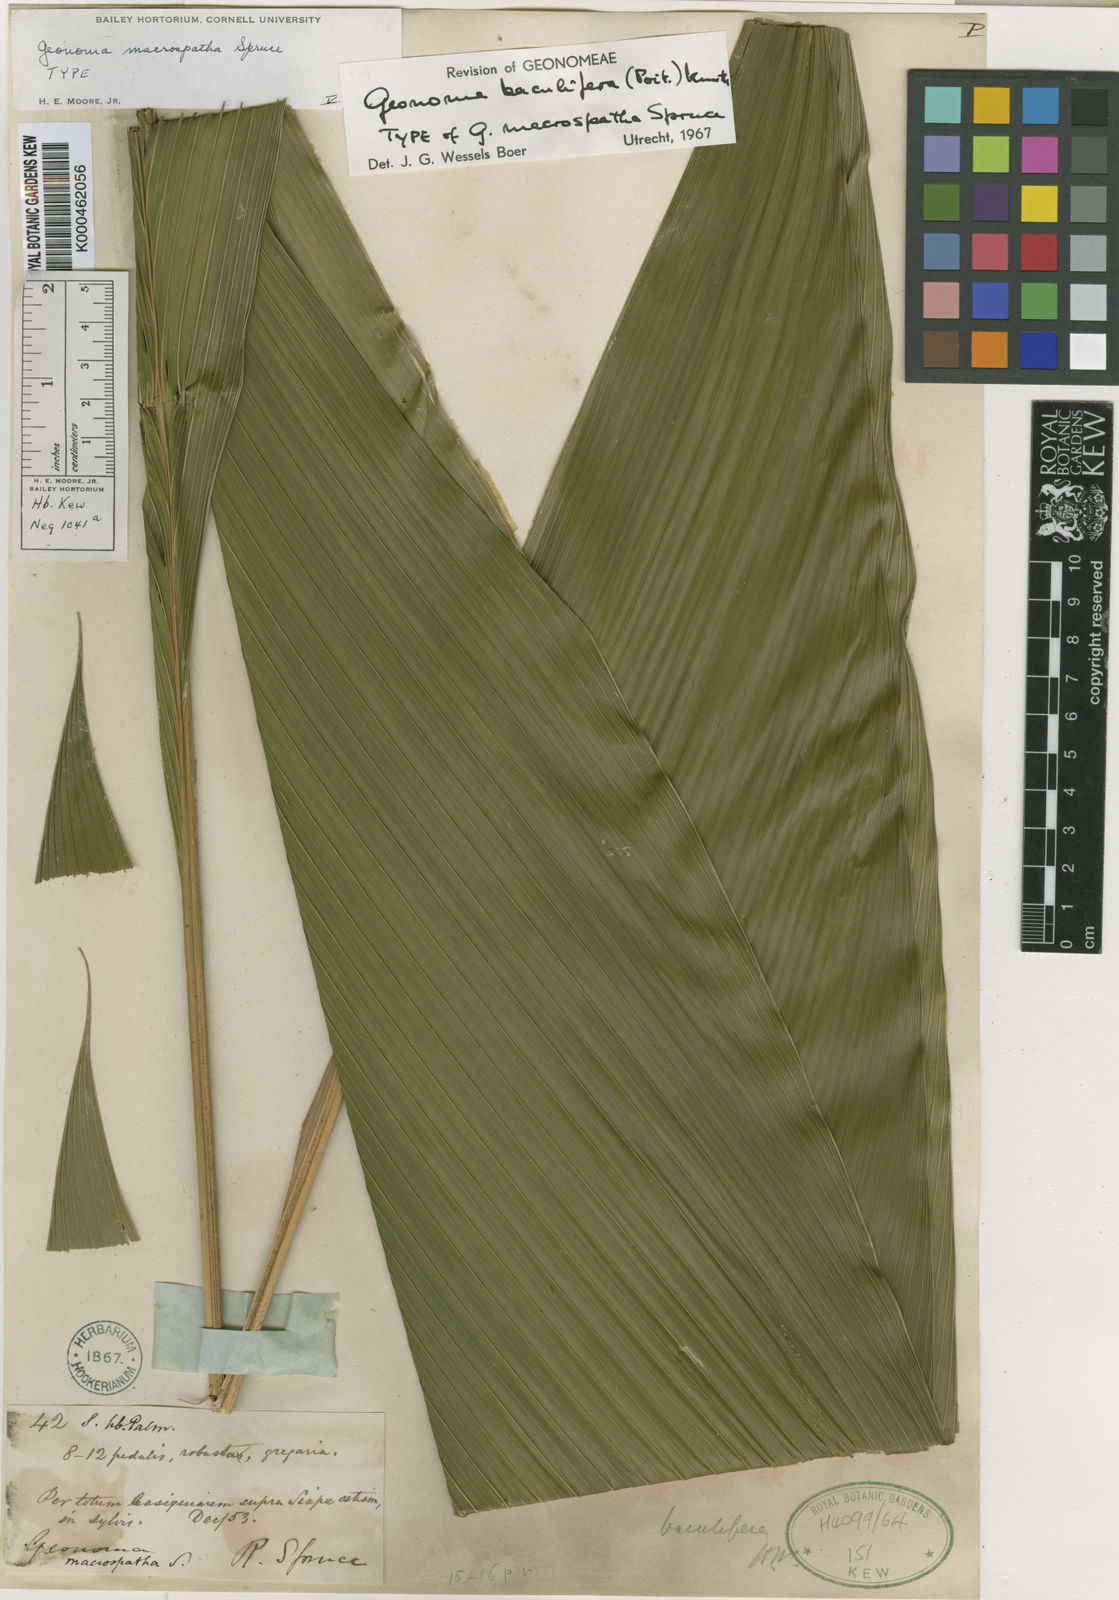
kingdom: Plantae
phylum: Tracheophyta
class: Liliopsida
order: Arecales
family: Arecaceae
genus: Geonoma
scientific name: Geonoma baculifera
